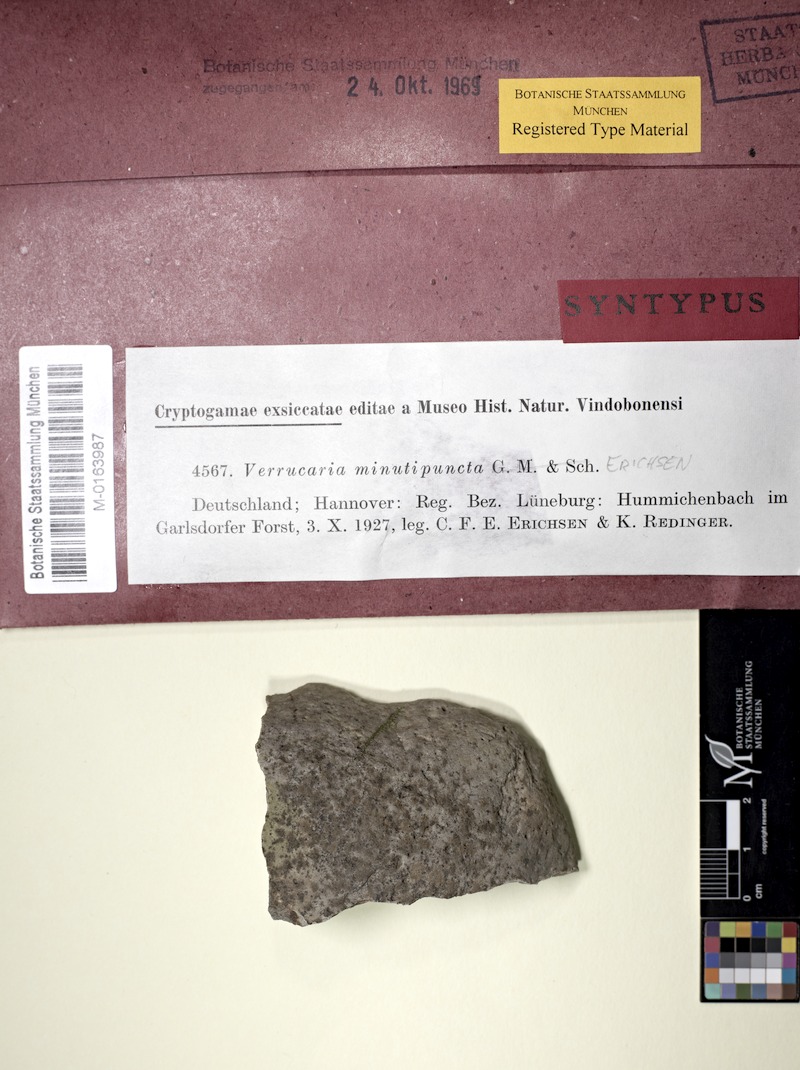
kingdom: Fungi
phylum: Ascomycota
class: Eurotiomycetes
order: Verrucariales
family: Verrucariaceae
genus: Hydropunctaria
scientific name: Hydropunctaria rheitrophila
